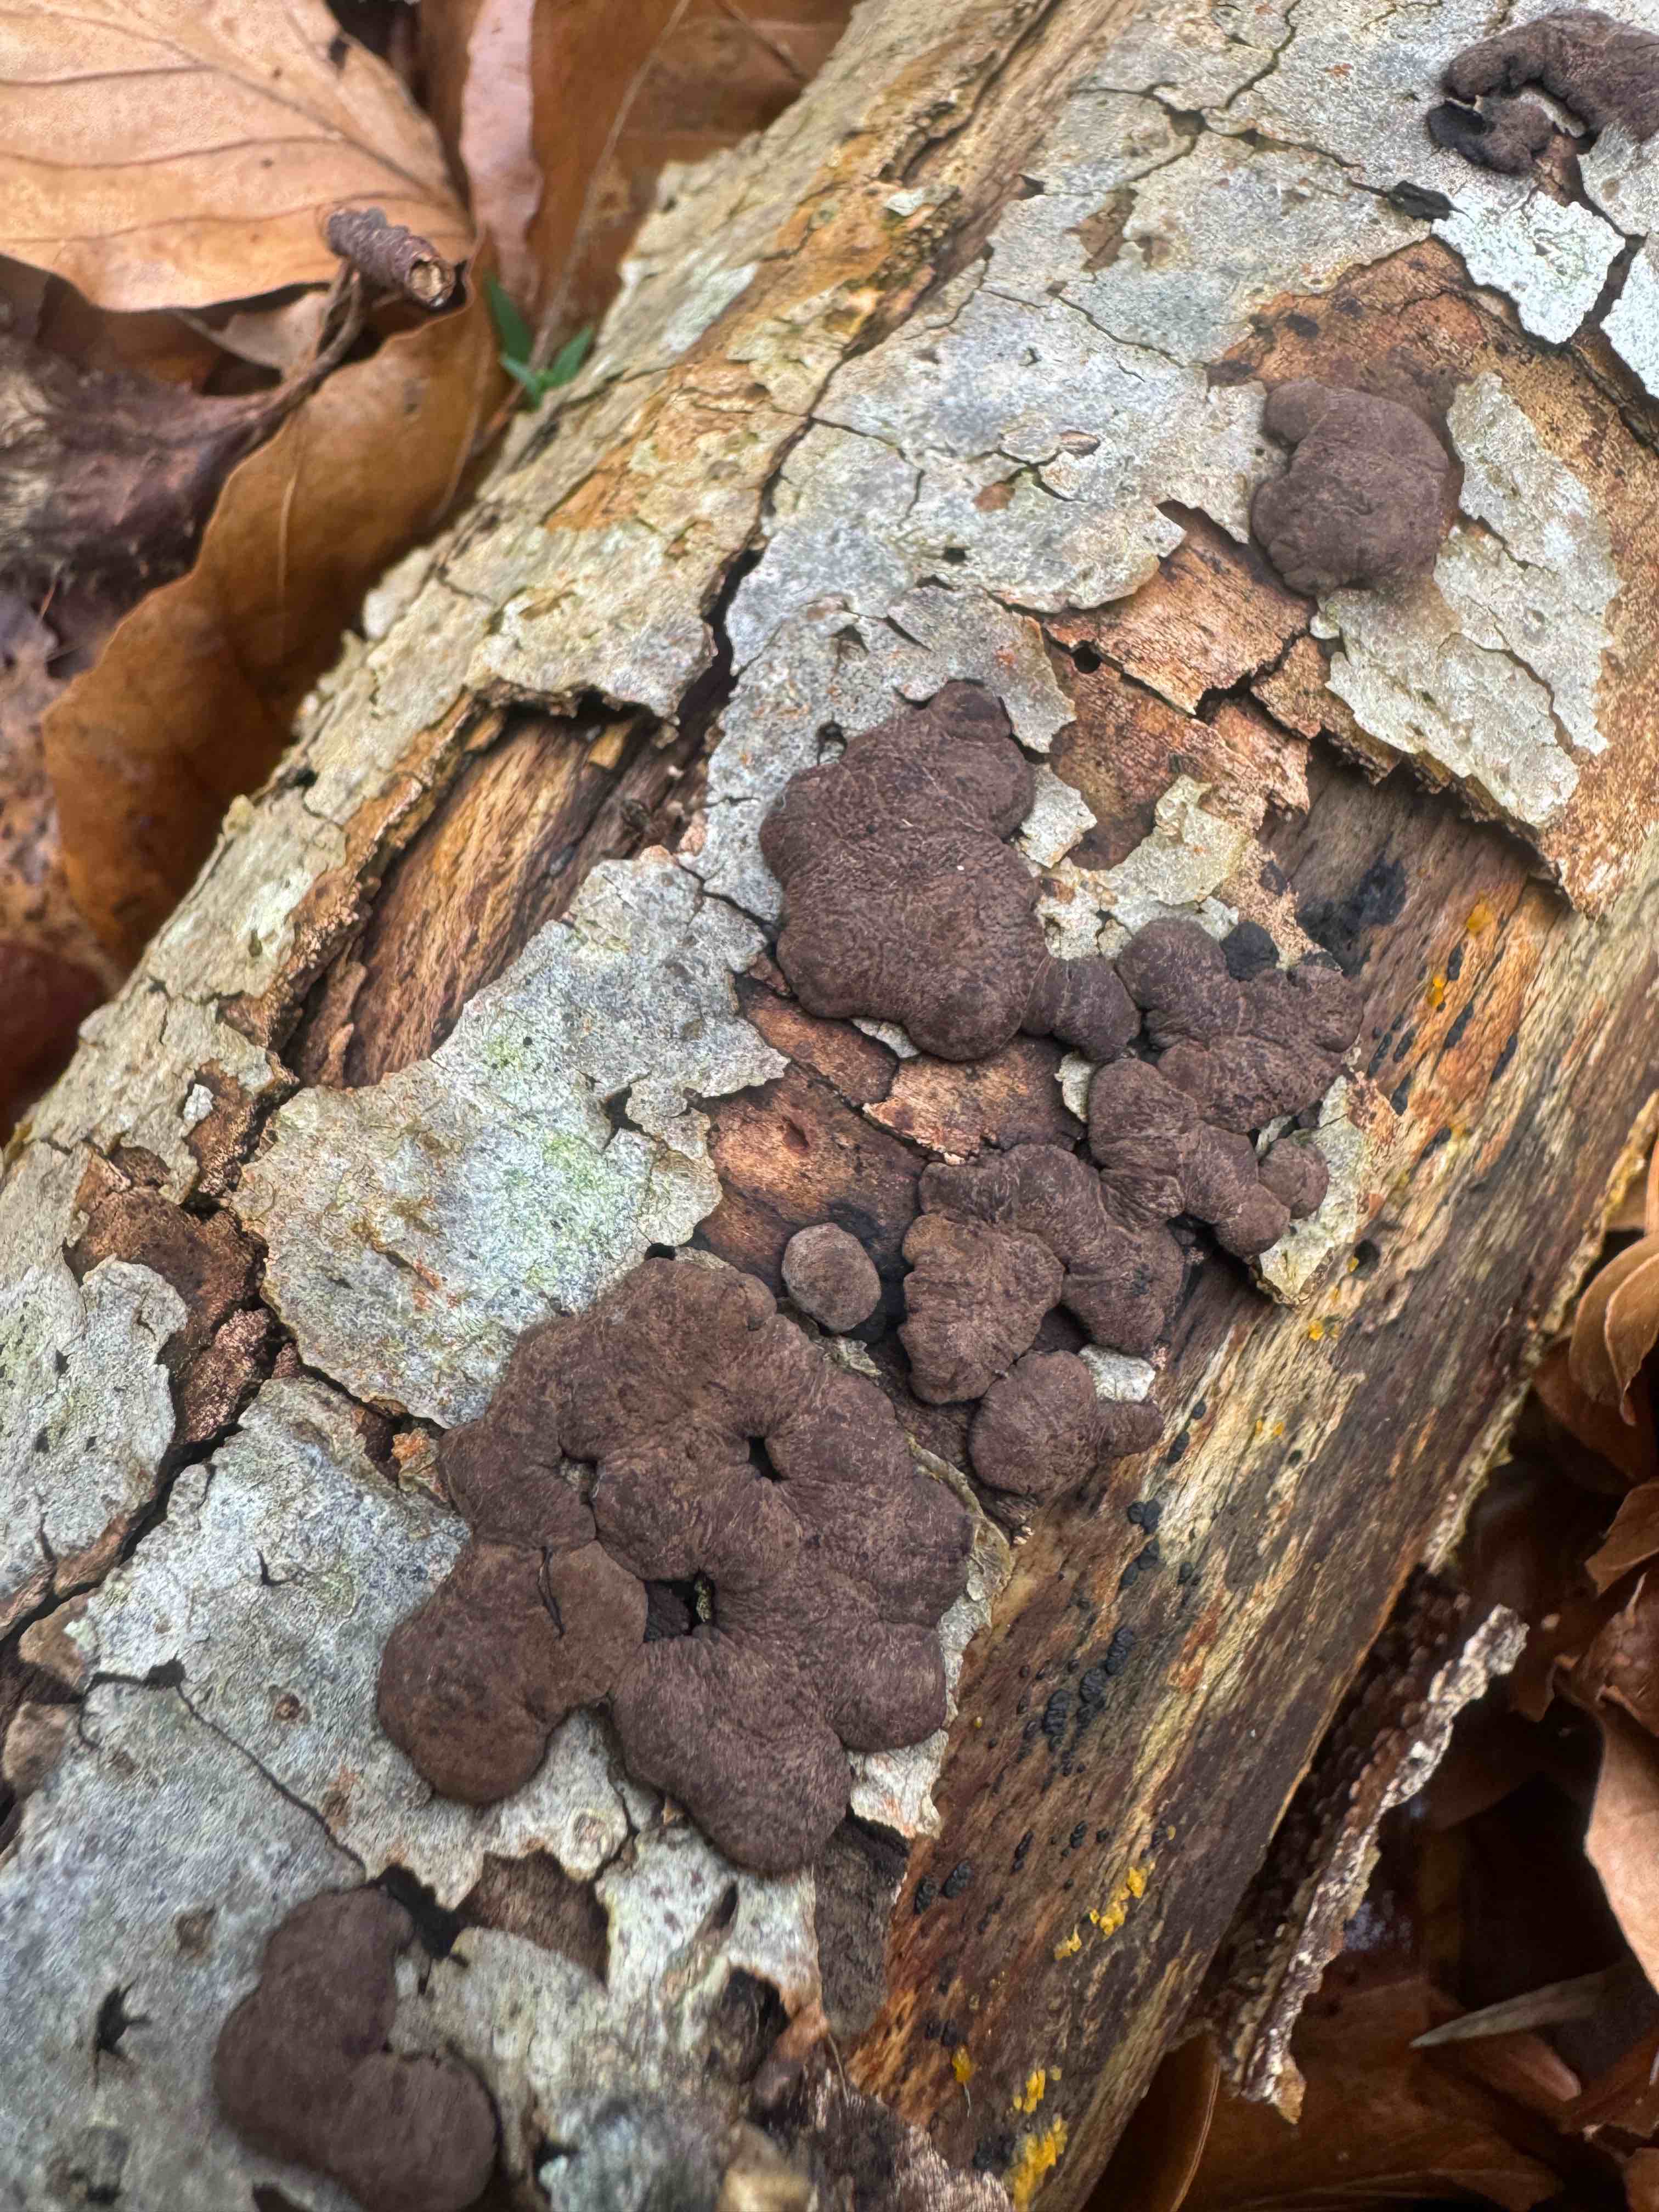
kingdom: Fungi
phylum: Ascomycota
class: Sordariomycetes
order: Xylariales
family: Hypoxylaceae
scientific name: Hypoxylaceae
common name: kulbærfamilien
